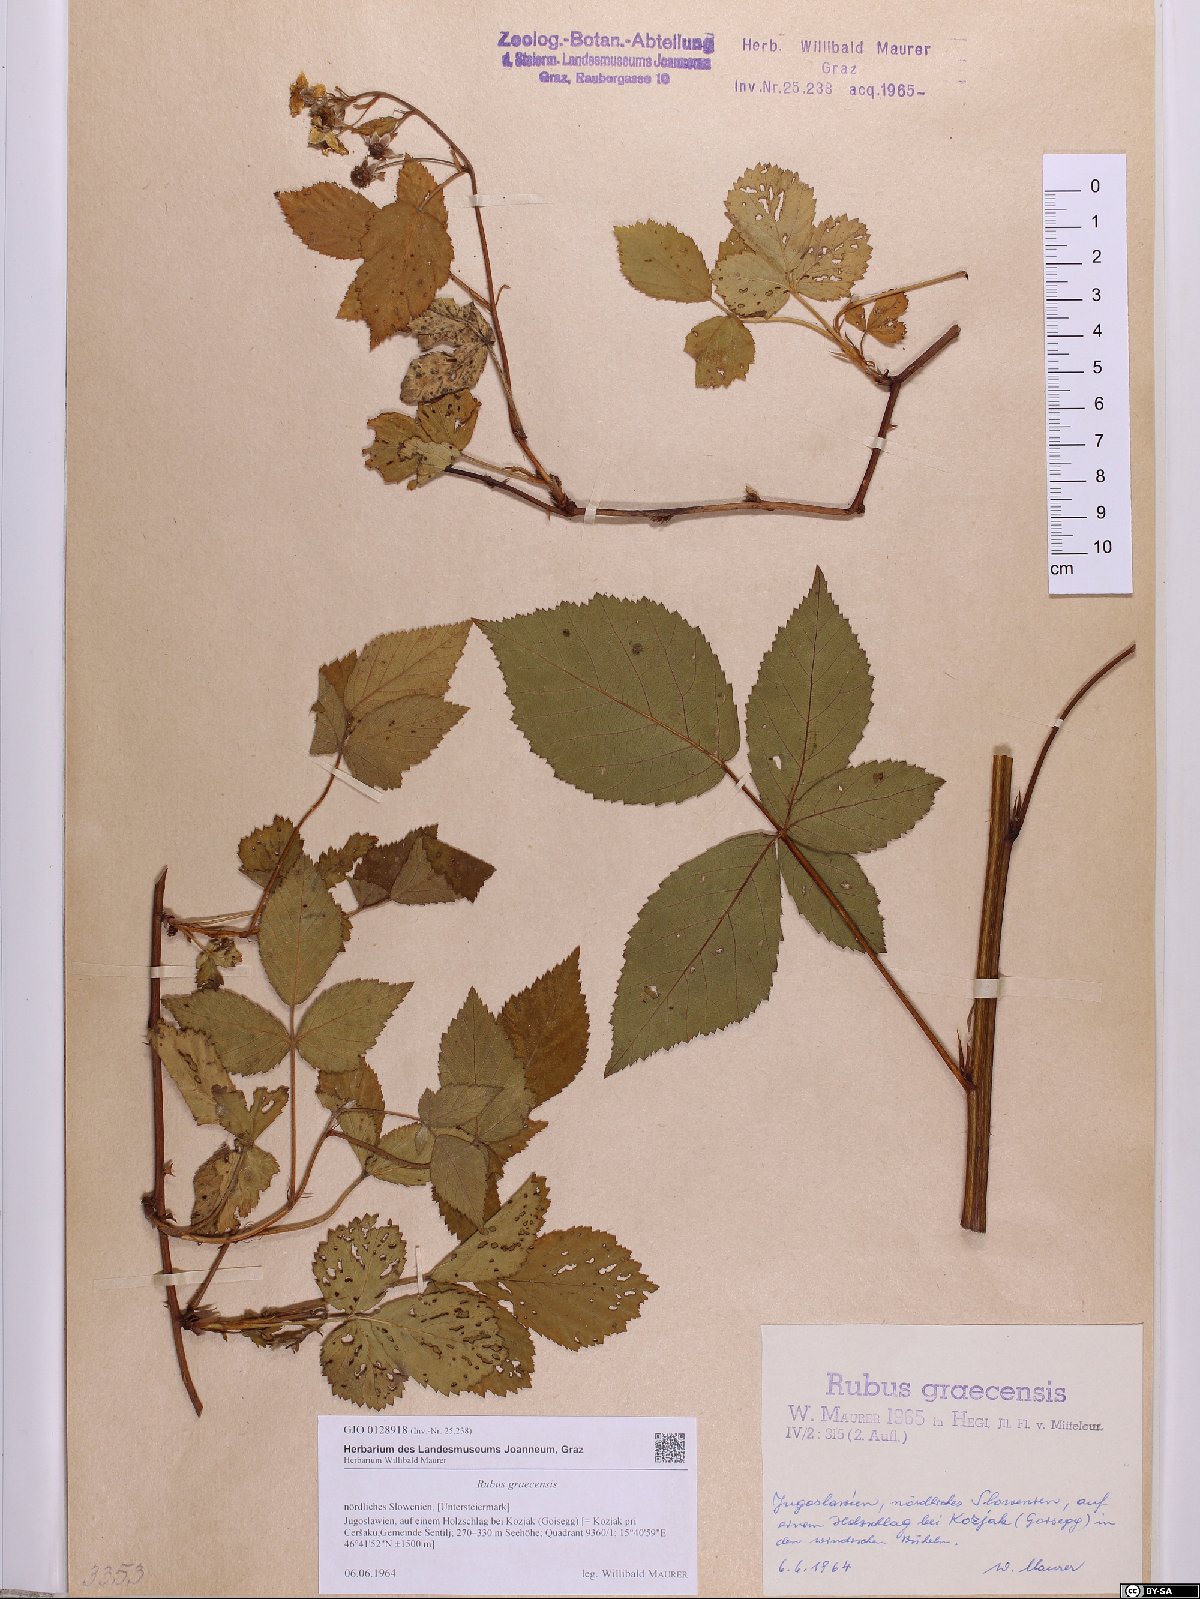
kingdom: Plantae
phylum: Tracheophyta
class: Magnoliopsida
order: Rosales
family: Rosaceae
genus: Rubus
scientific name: Rubus graecensis
